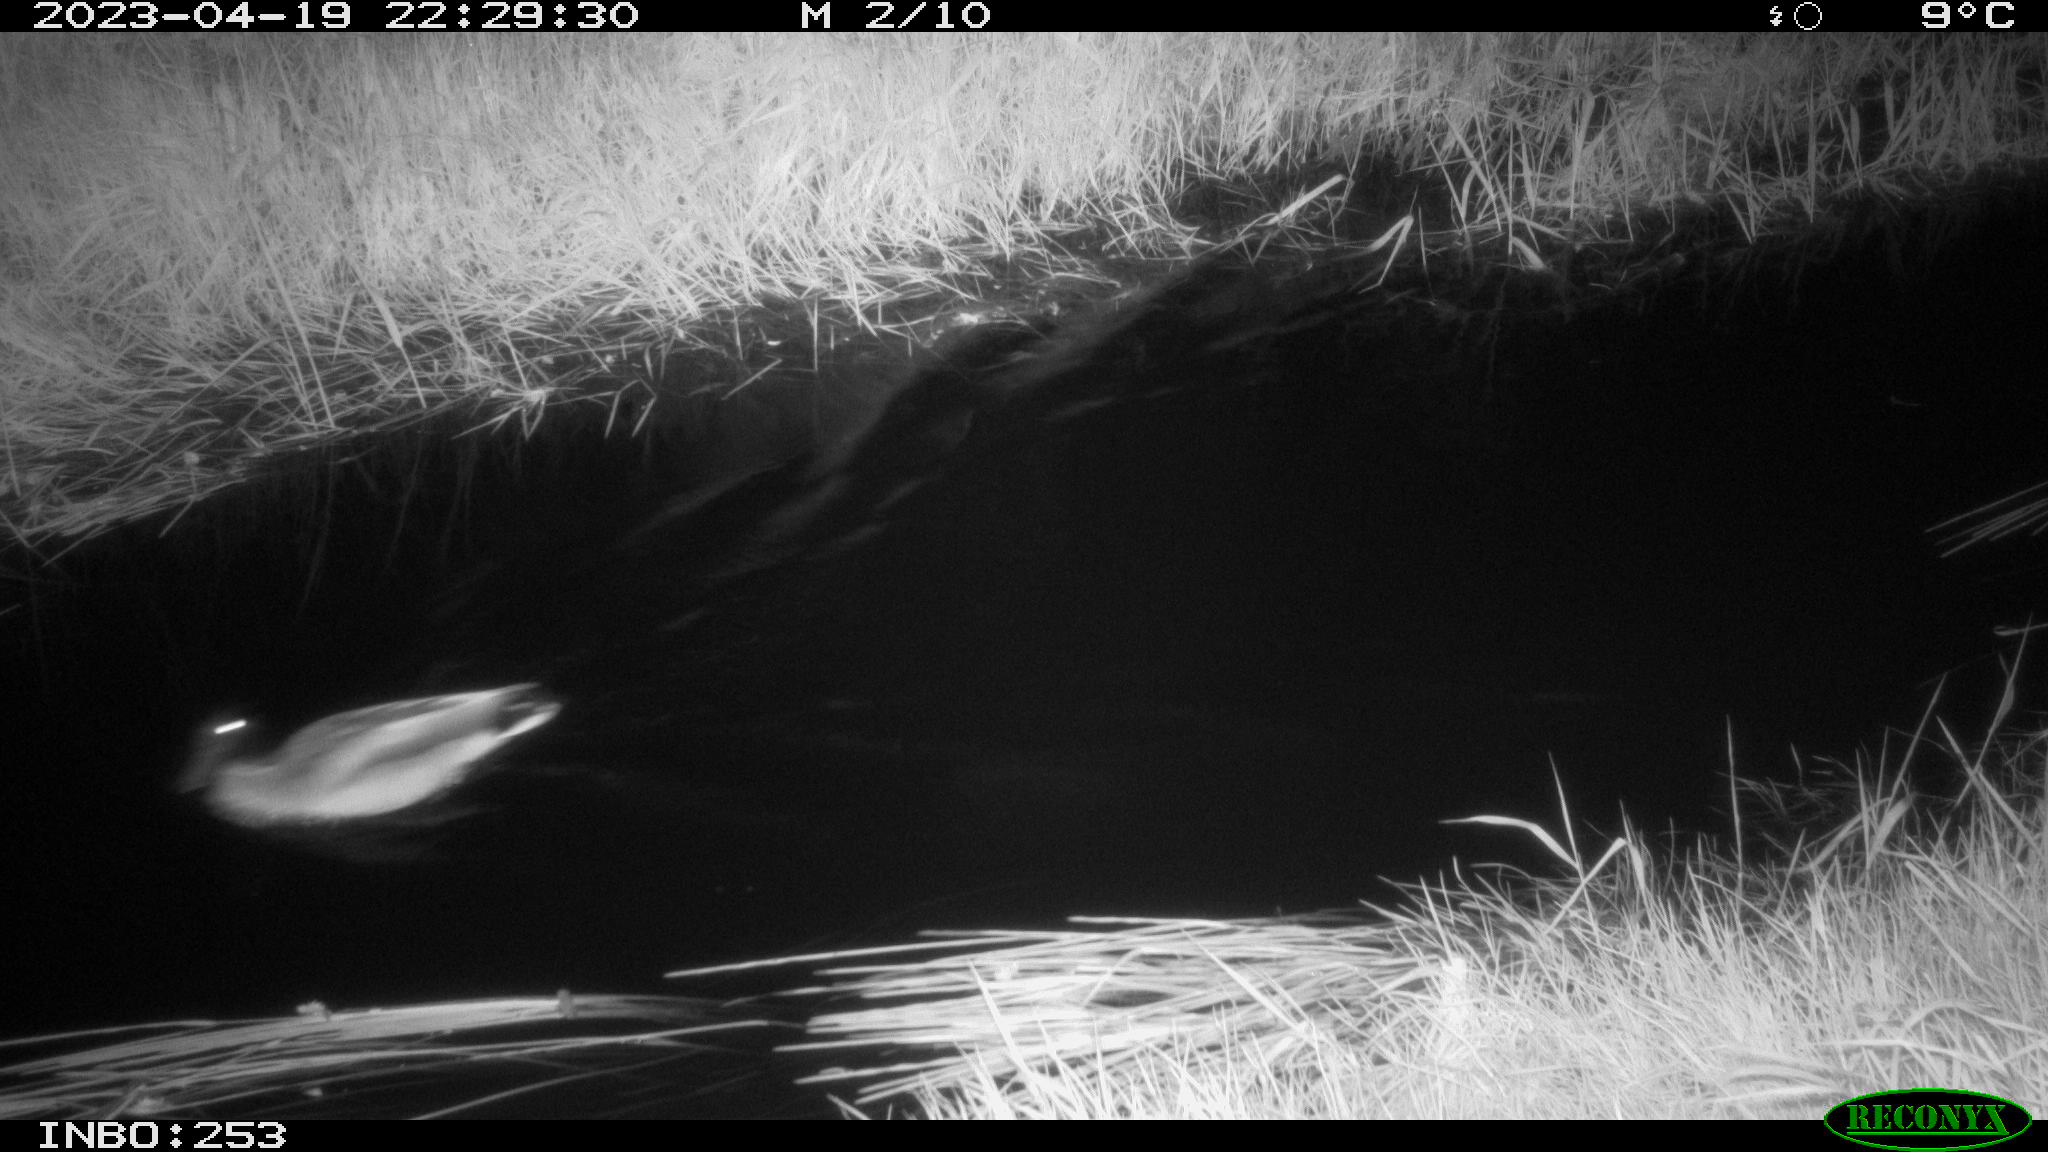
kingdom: Animalia
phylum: Chordata
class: Aves
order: Anseriformes
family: Anatidae
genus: Anas
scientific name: Anas
